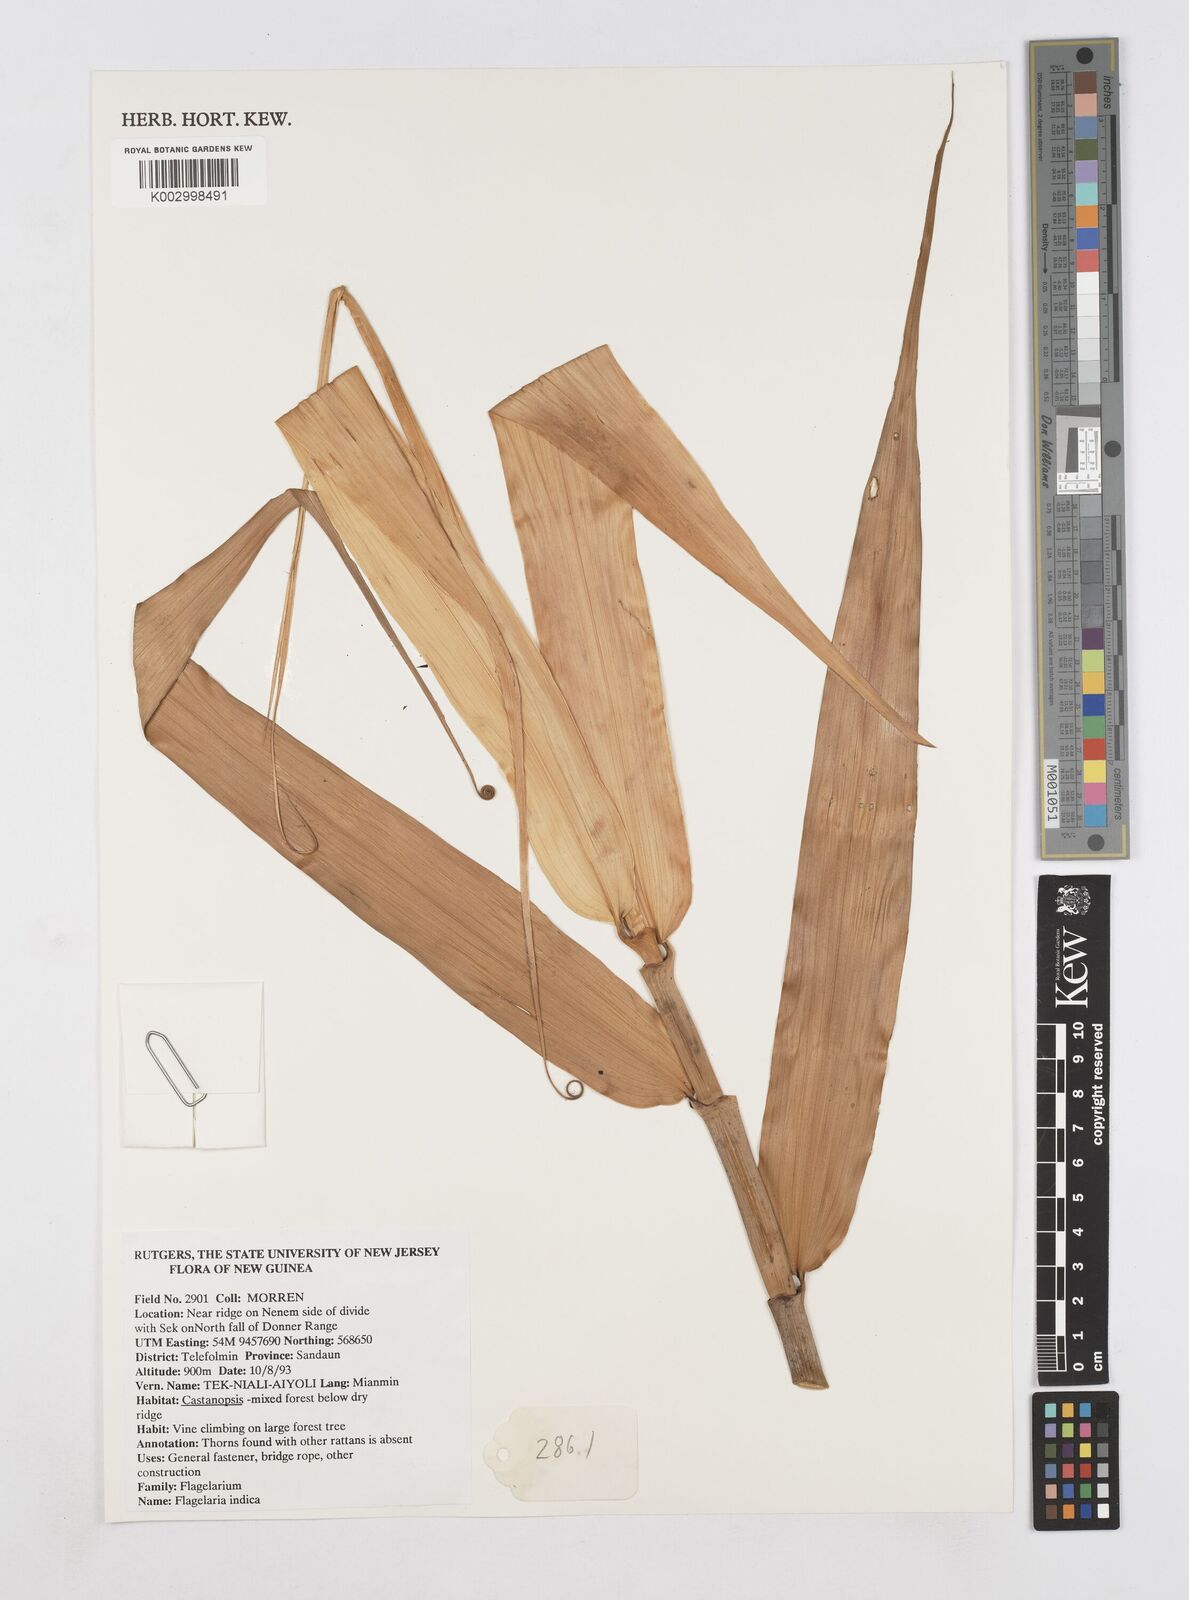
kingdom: Plantae
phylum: Tracheophyta
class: Liliopsida
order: Poales
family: Flagellariaceae
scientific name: Flagellariaceae
